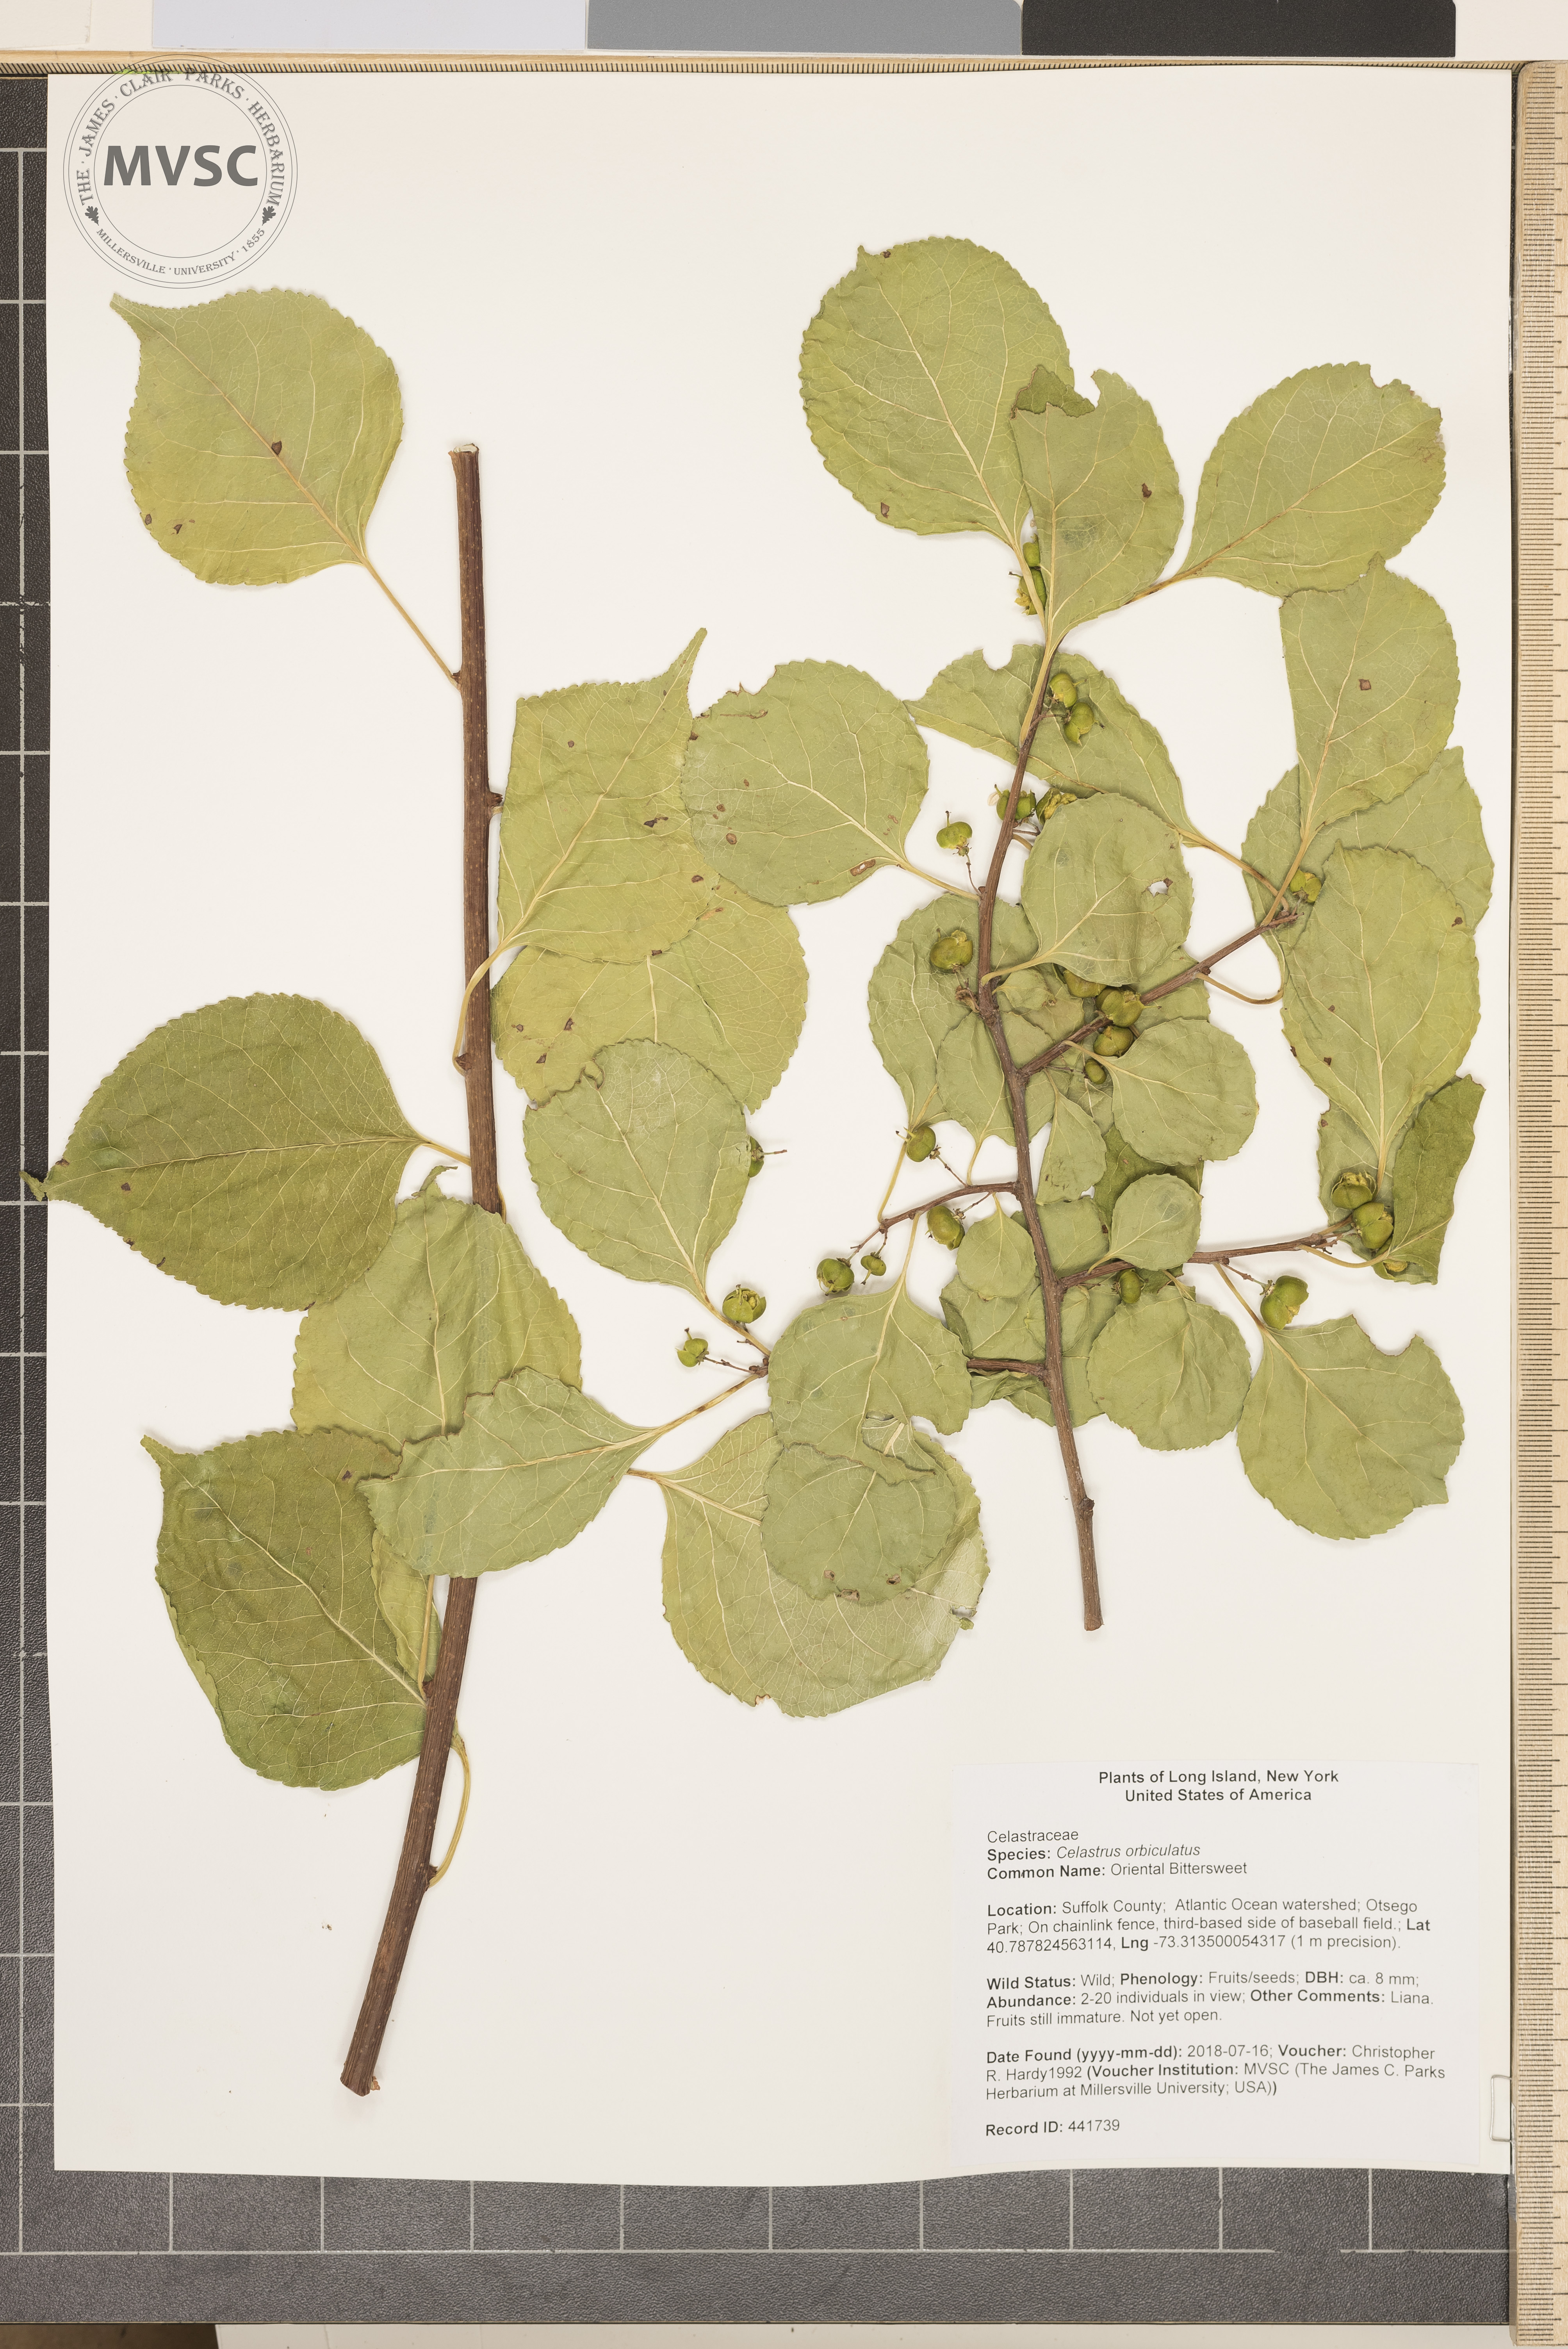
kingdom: Plantae
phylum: Tracheophyta
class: Magnoliopsida
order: Celastrales
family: Celastraceae
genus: Celastrus
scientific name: Celastrus orbiculatus
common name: Oriental Bittersweet
